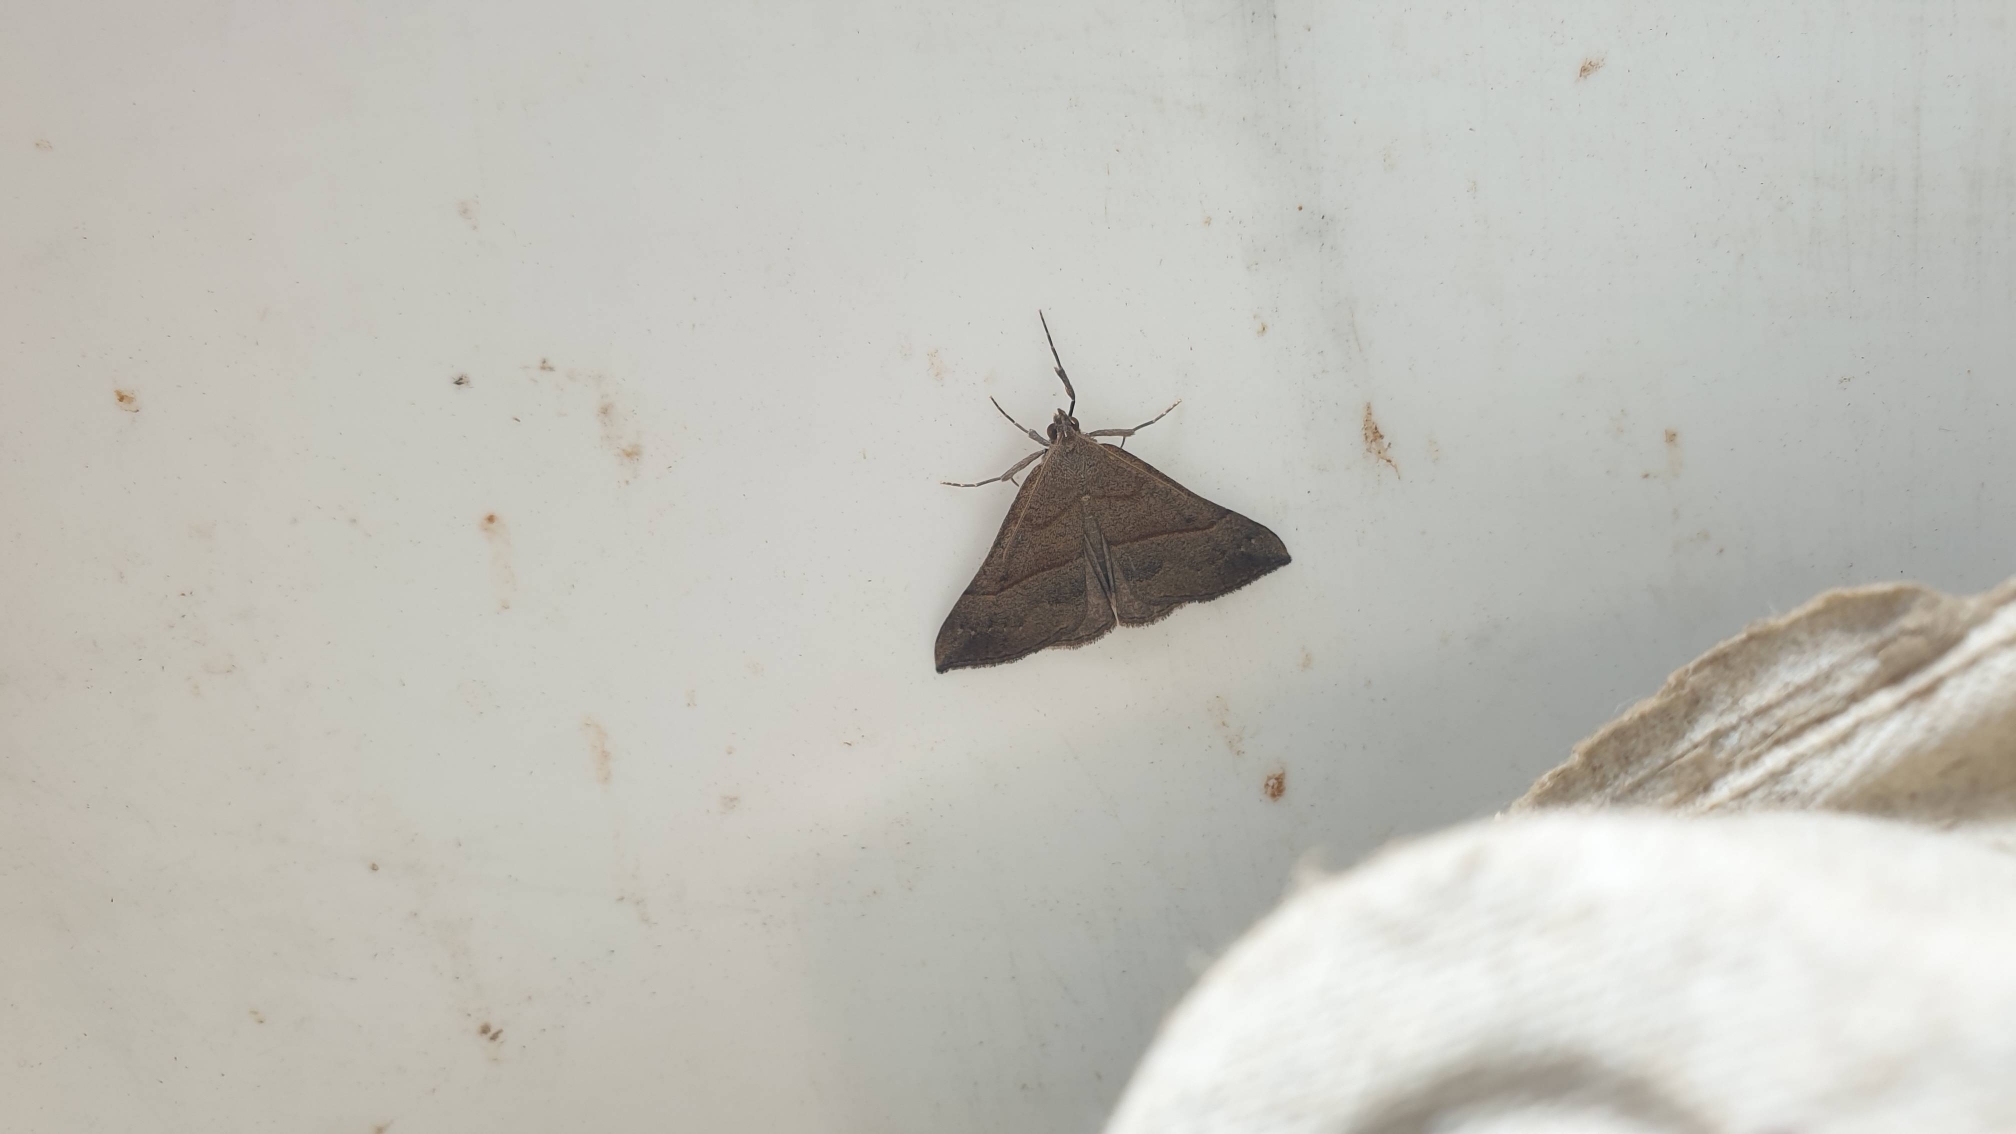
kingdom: Animalia
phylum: Arthropoda
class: Insecta
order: Lepidoptera
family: Erebidae
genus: Hypena
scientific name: Hypena proboscidalis
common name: Snudeugle
